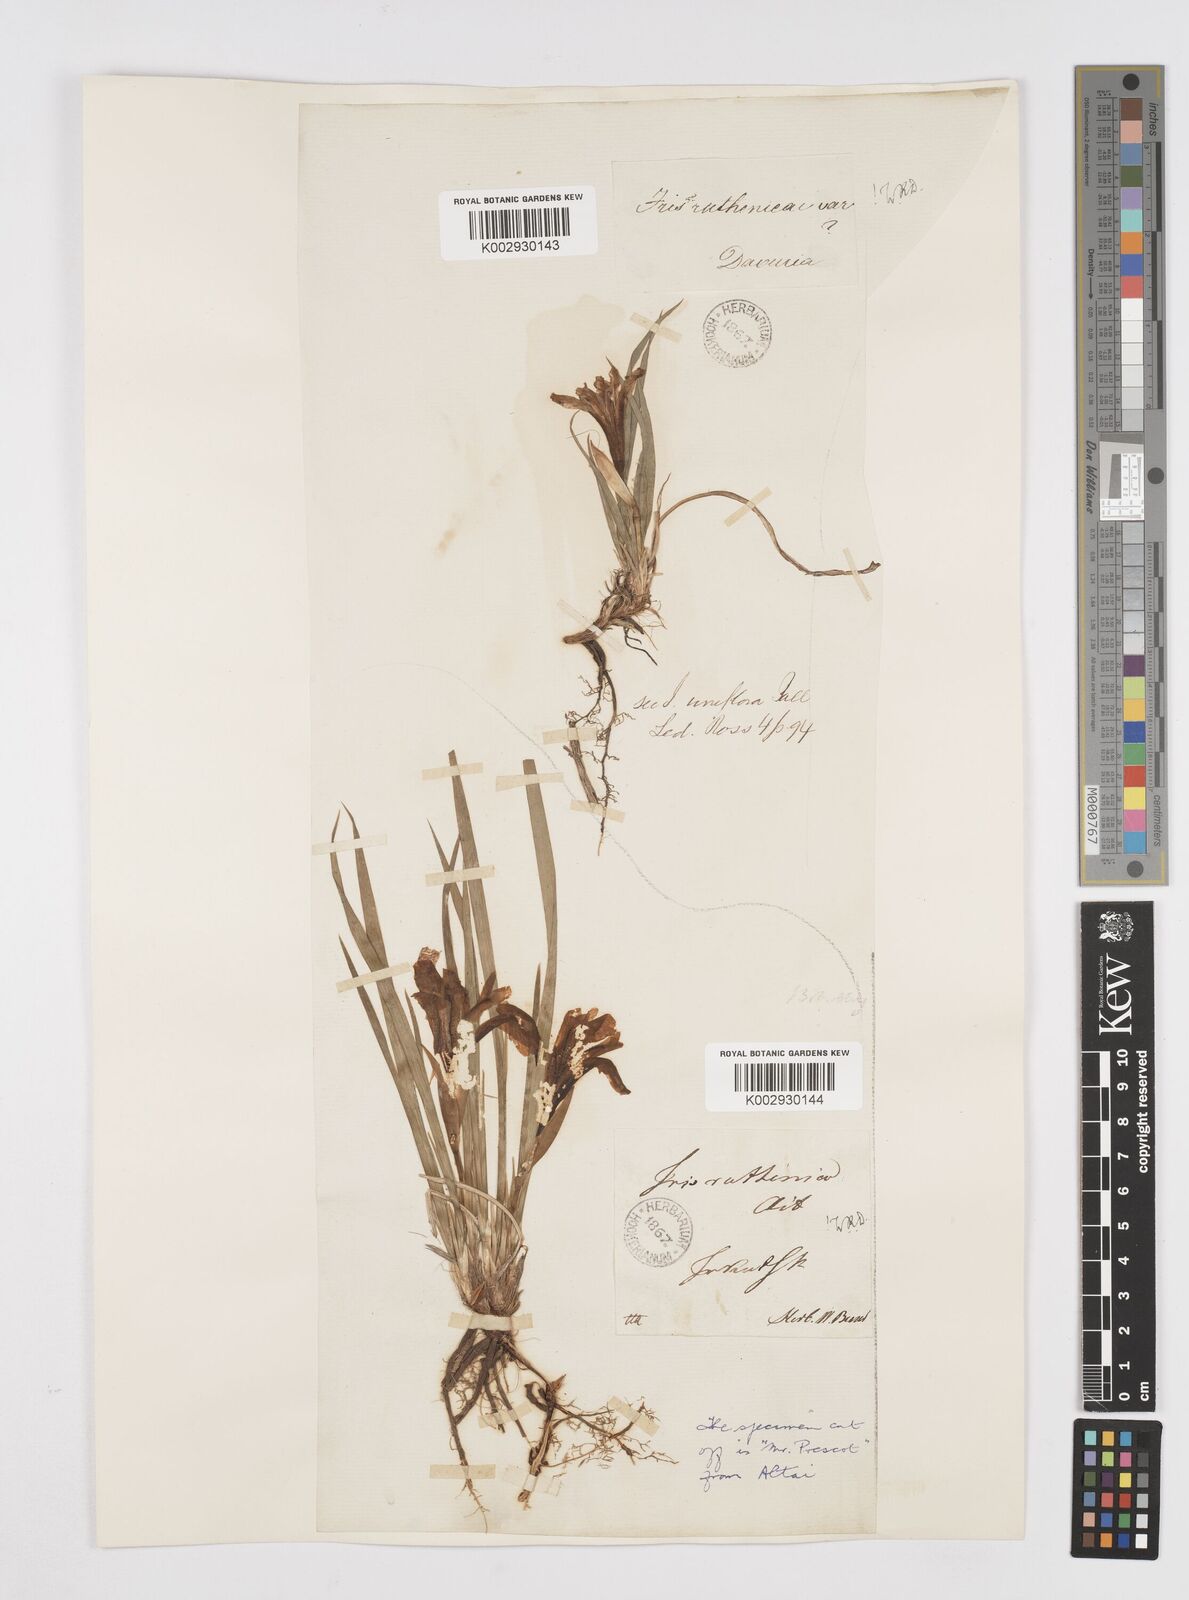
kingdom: Plantae
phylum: Tracheophyta
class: Liliopsida
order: Asparagales
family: Iridaceae
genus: Iris
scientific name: Iris ruthenica
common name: Purple-bract iris
